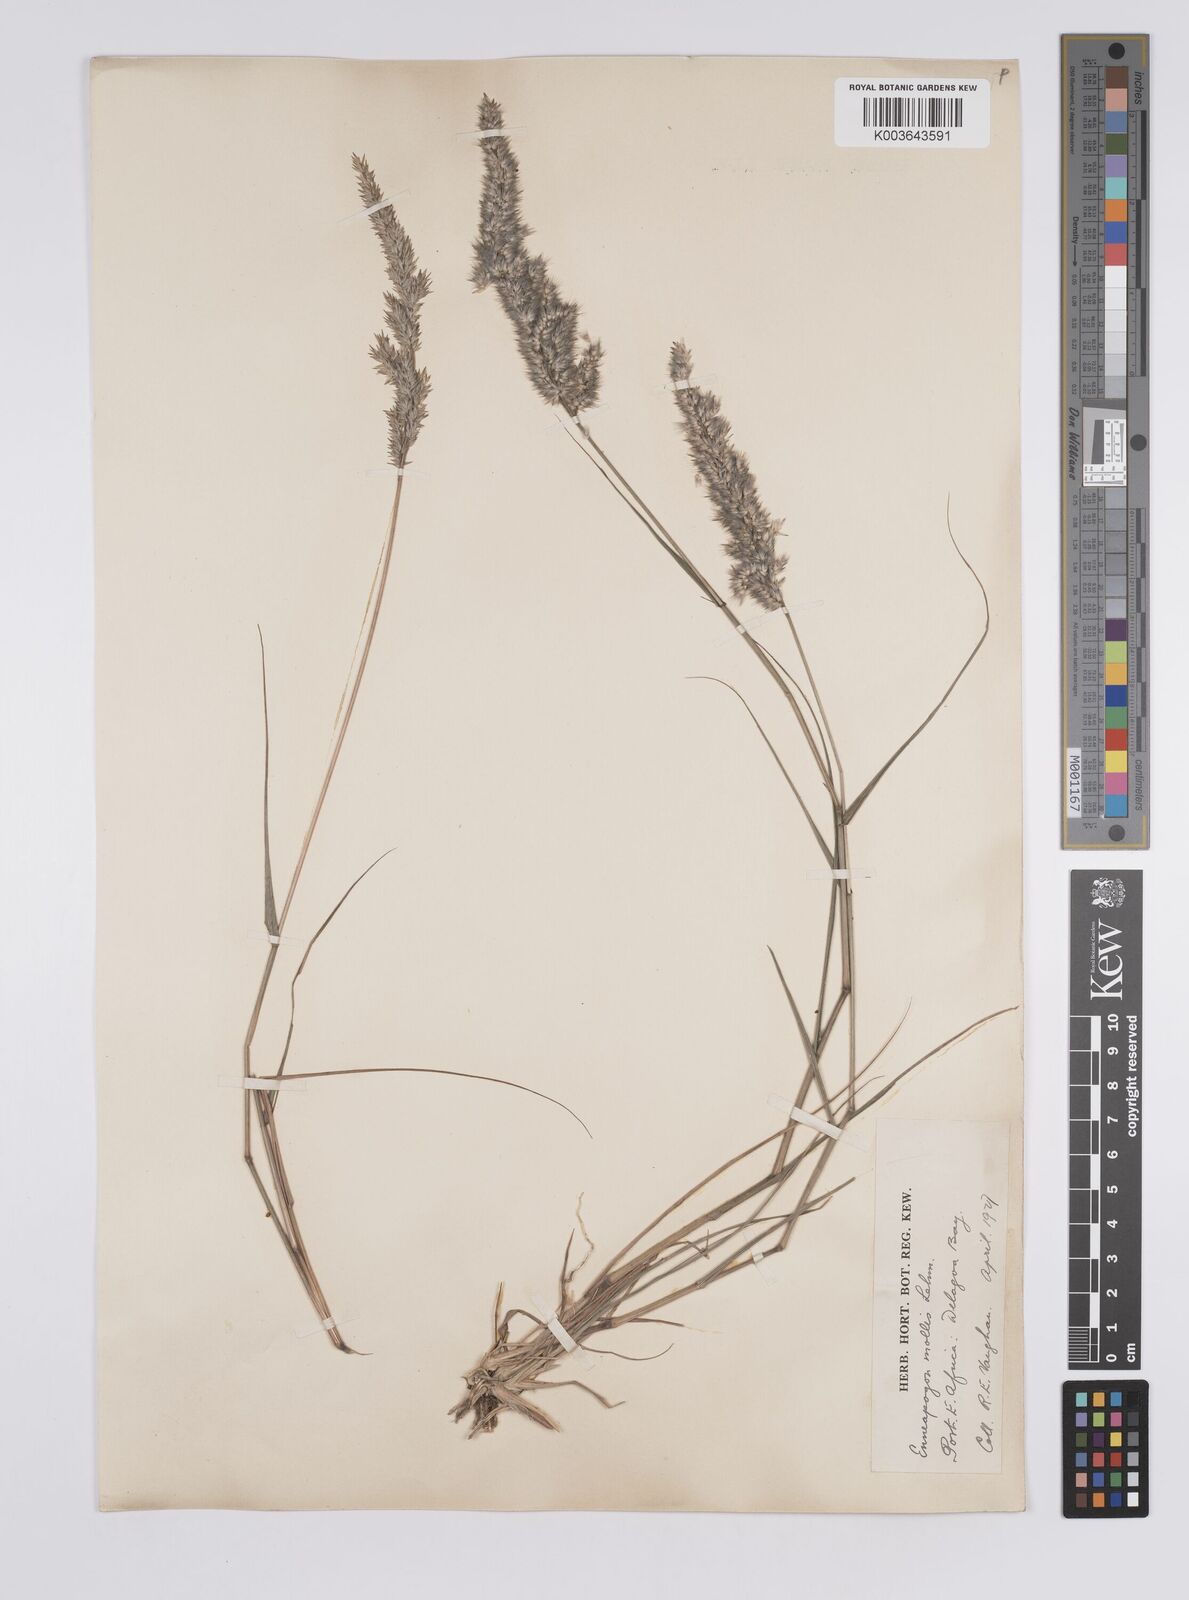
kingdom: Plantae
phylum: Tracheophyta
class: Liliopsida
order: Poales
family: Poaceae
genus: Enneapogon
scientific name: Enneapogon cenchroides
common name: Soft feather pappusgrass
